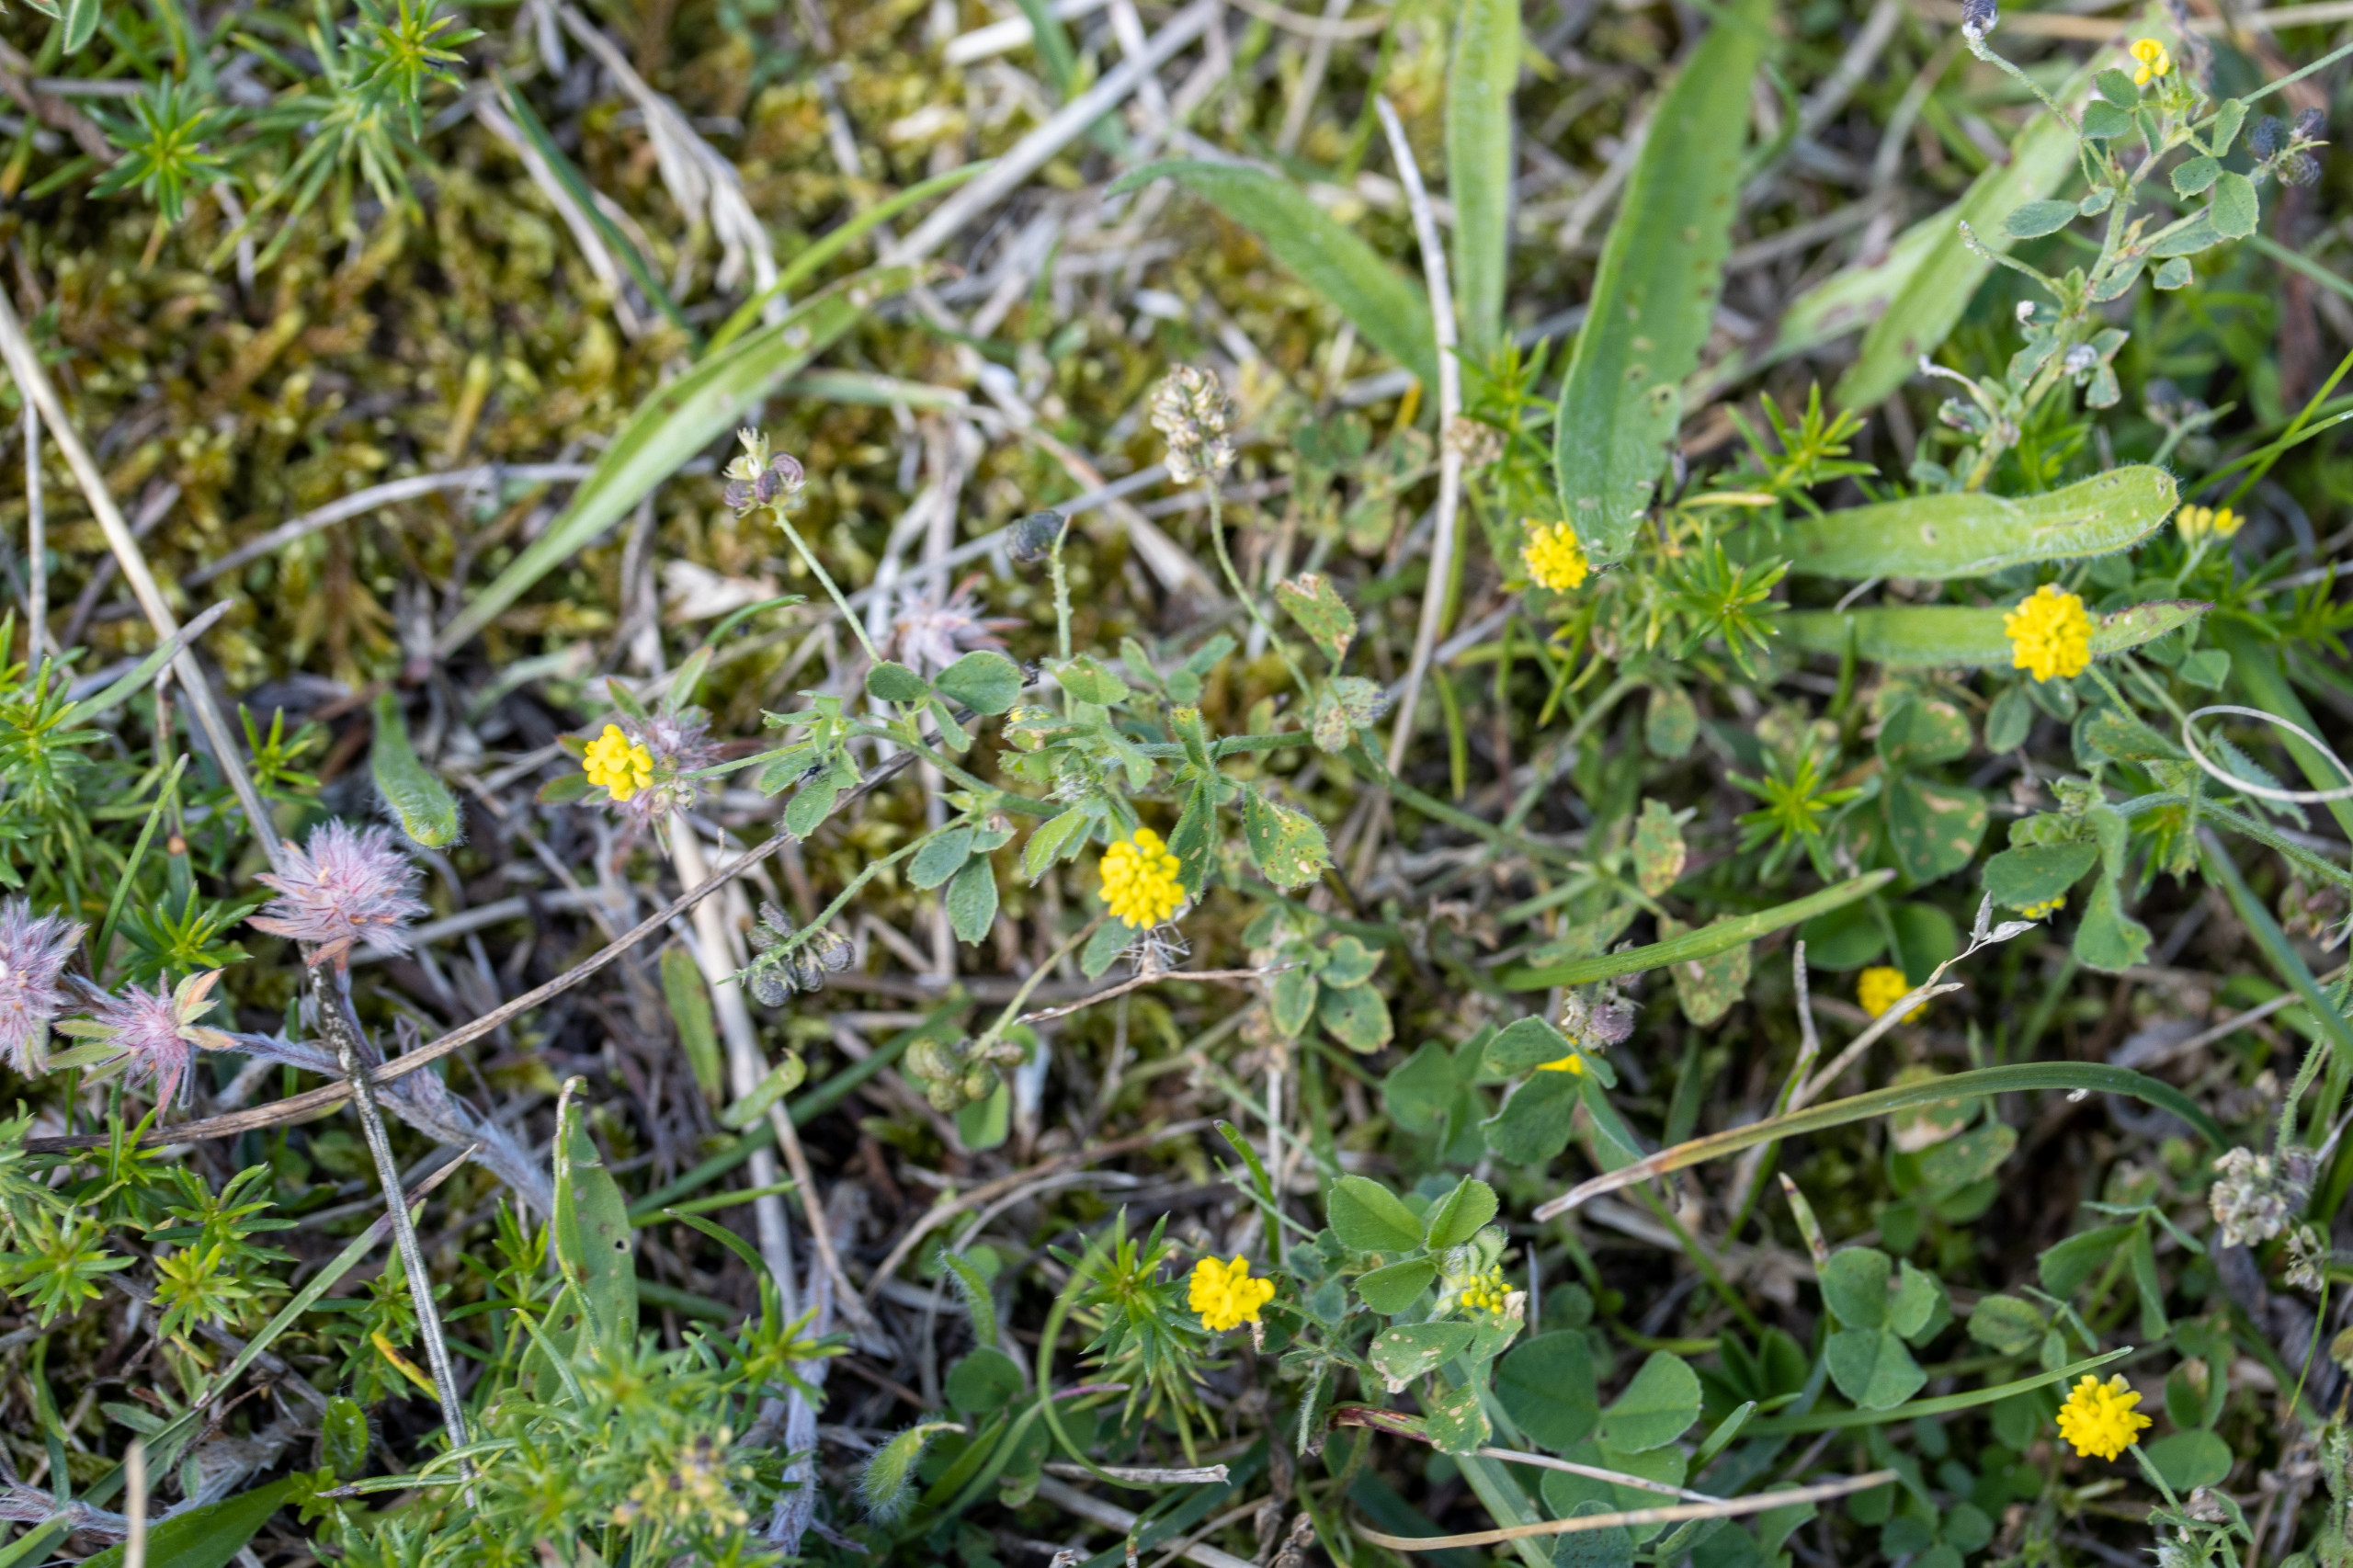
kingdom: Plantae
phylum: Tracheophyta
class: Magnoliopsida
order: Fabales
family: Fabaceae
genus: Medicago
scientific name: Medicago lupulina
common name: Humle-sneglebælg
